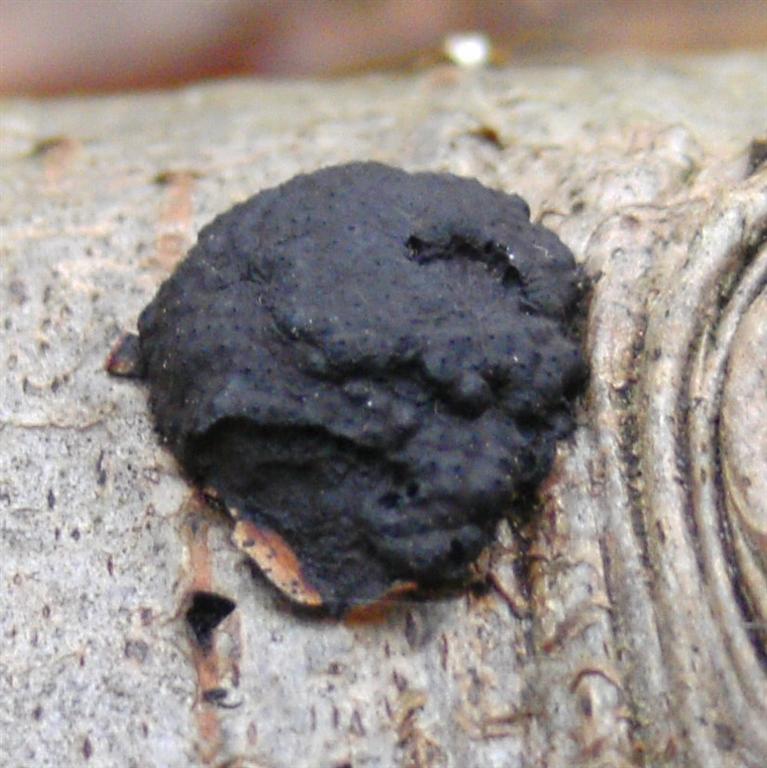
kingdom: Fungi
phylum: Ascomycota
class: Sordariomycetes
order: Xylariales
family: Hypoxylaceae
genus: Jackrogersella
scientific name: Jackrogersella multiformis
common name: foranderlig kulbær
